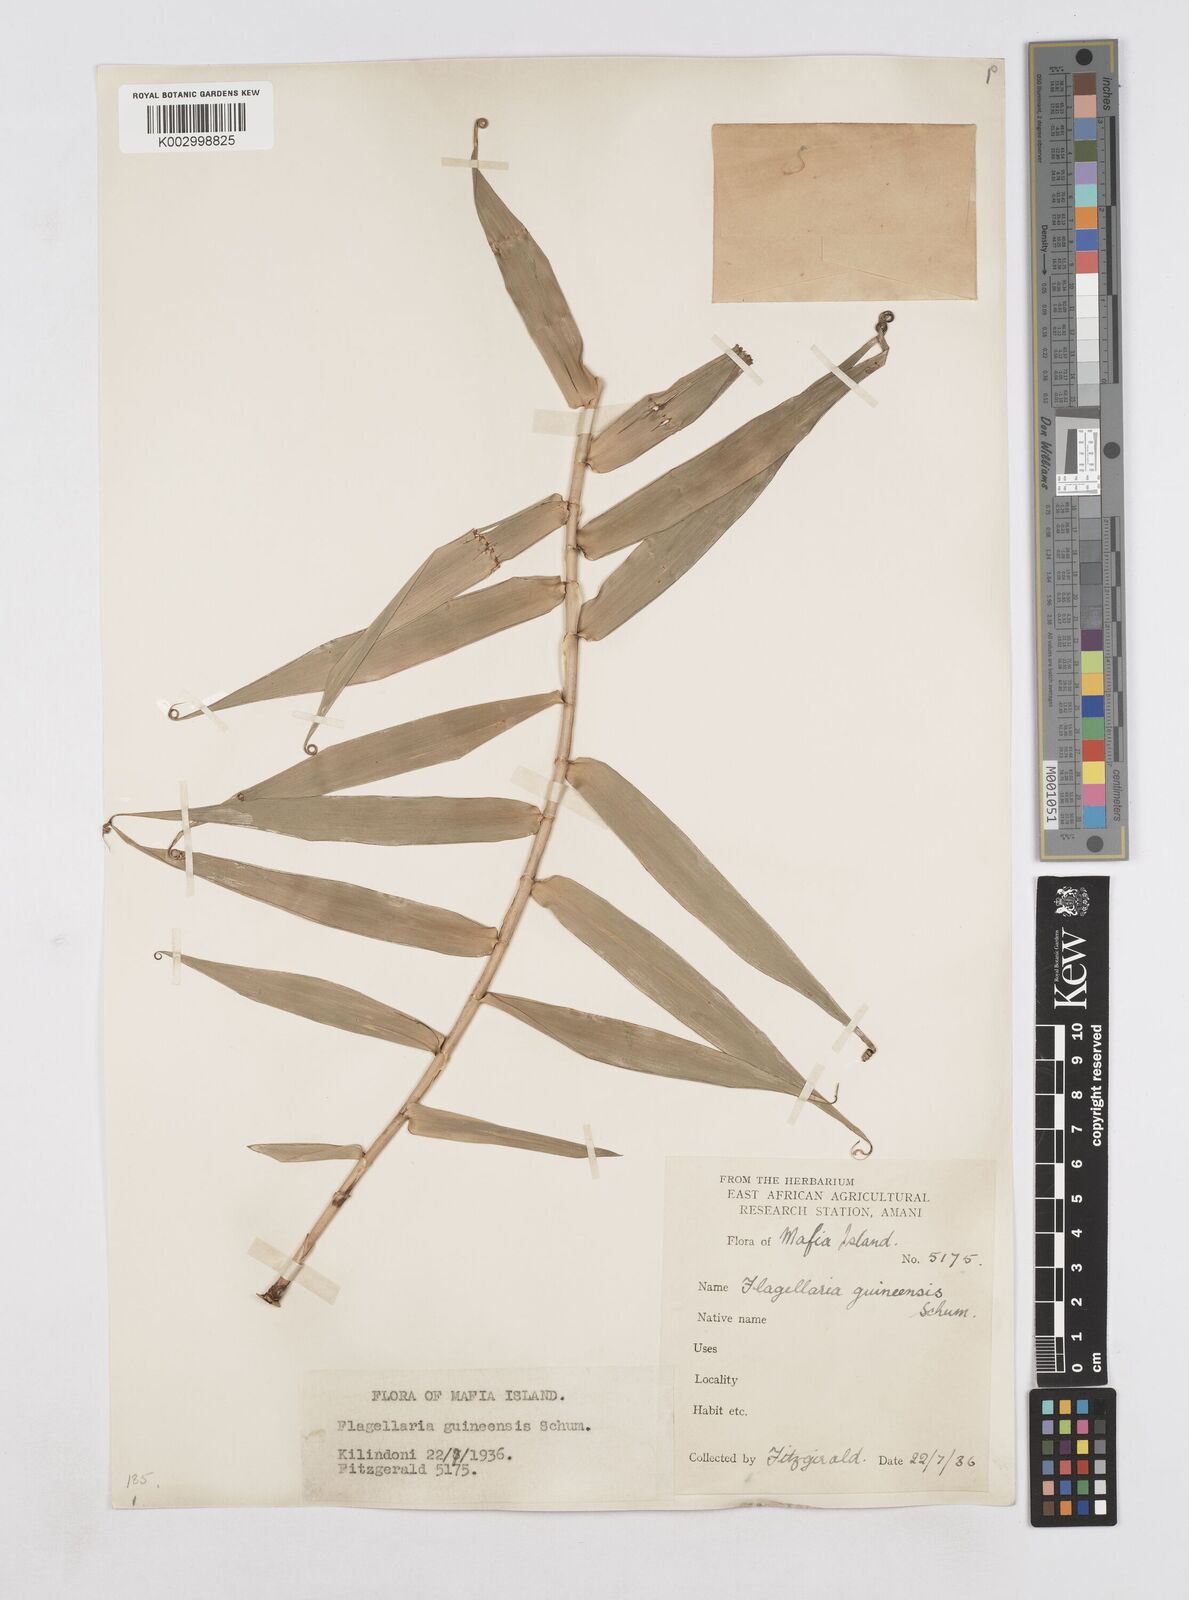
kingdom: Plantae
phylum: Tracheophyta
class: Liliopsida
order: Poales
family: Flagellariaceae
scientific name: Flagellariaceae
